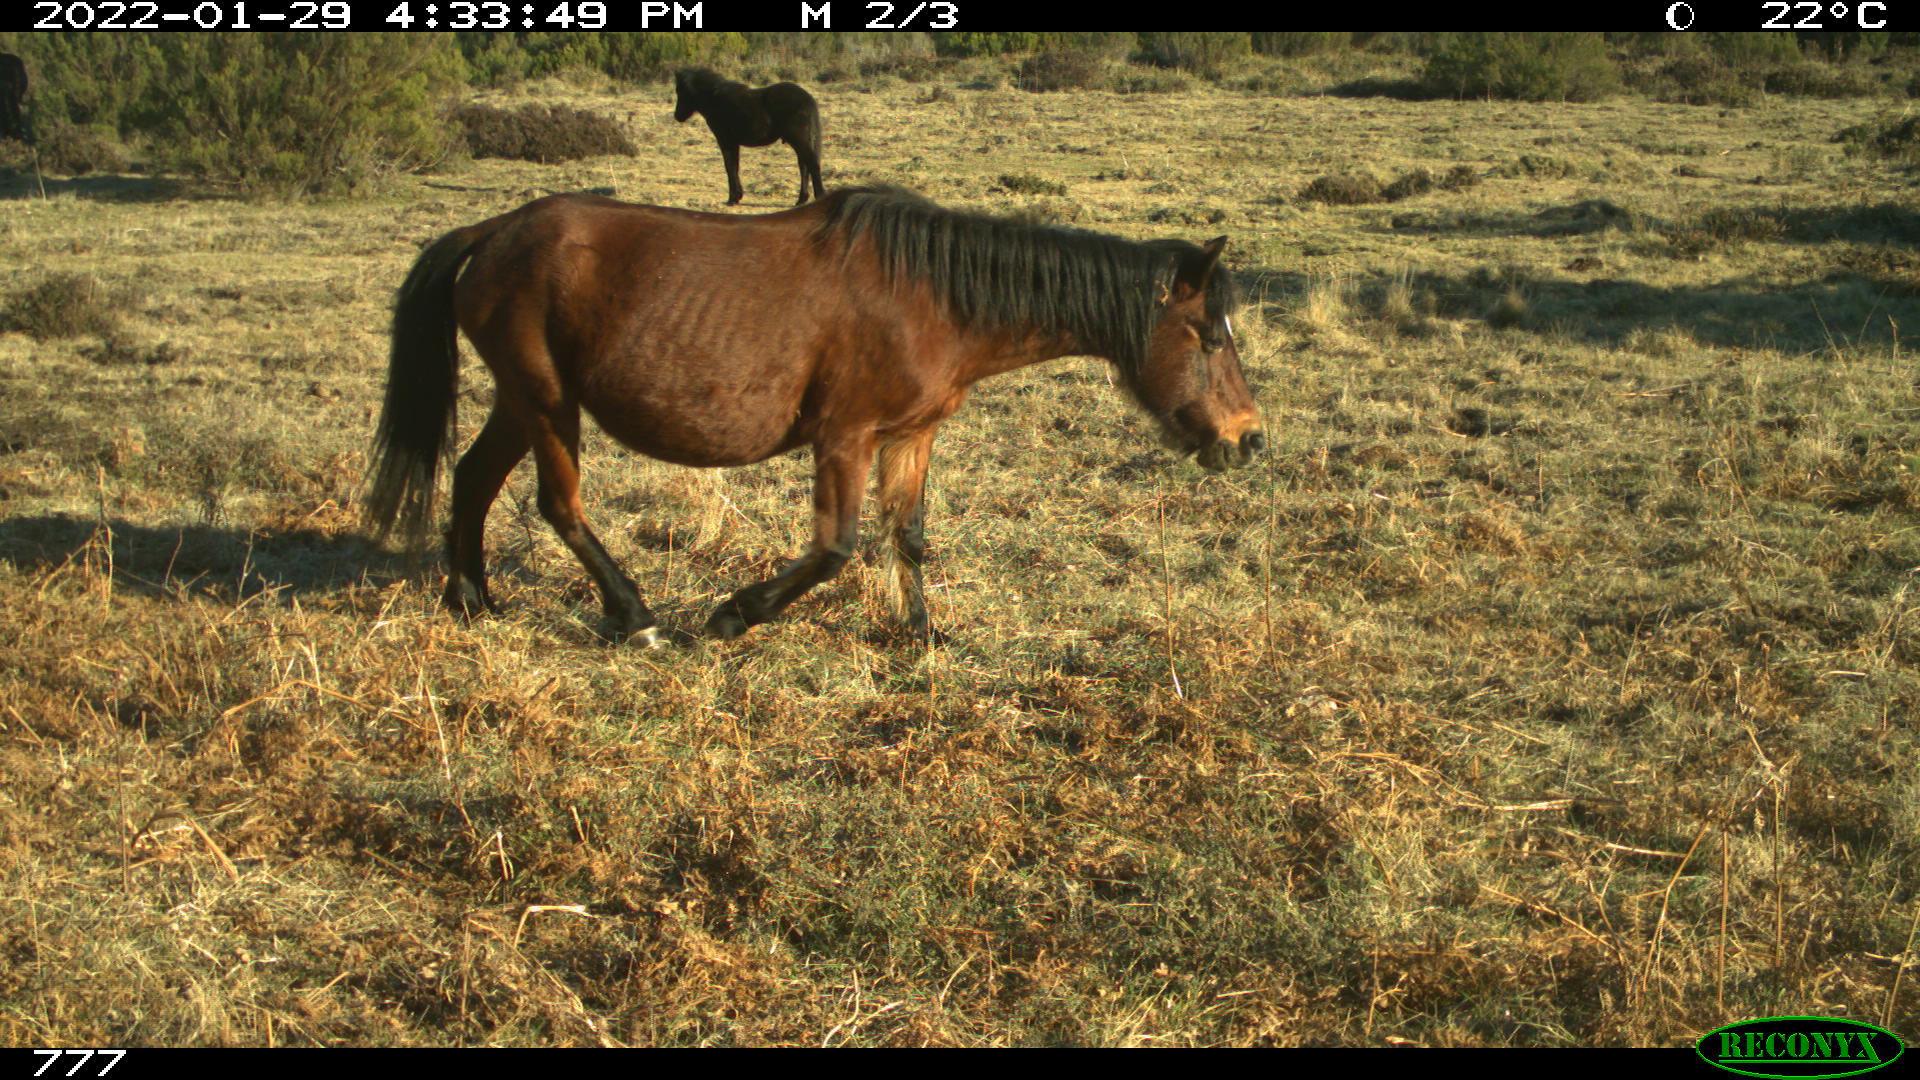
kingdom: Animalia
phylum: Chordata
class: Mammalia
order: Perissodactyla
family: Equidae
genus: Equus
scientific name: Equus caballus
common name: Horse
